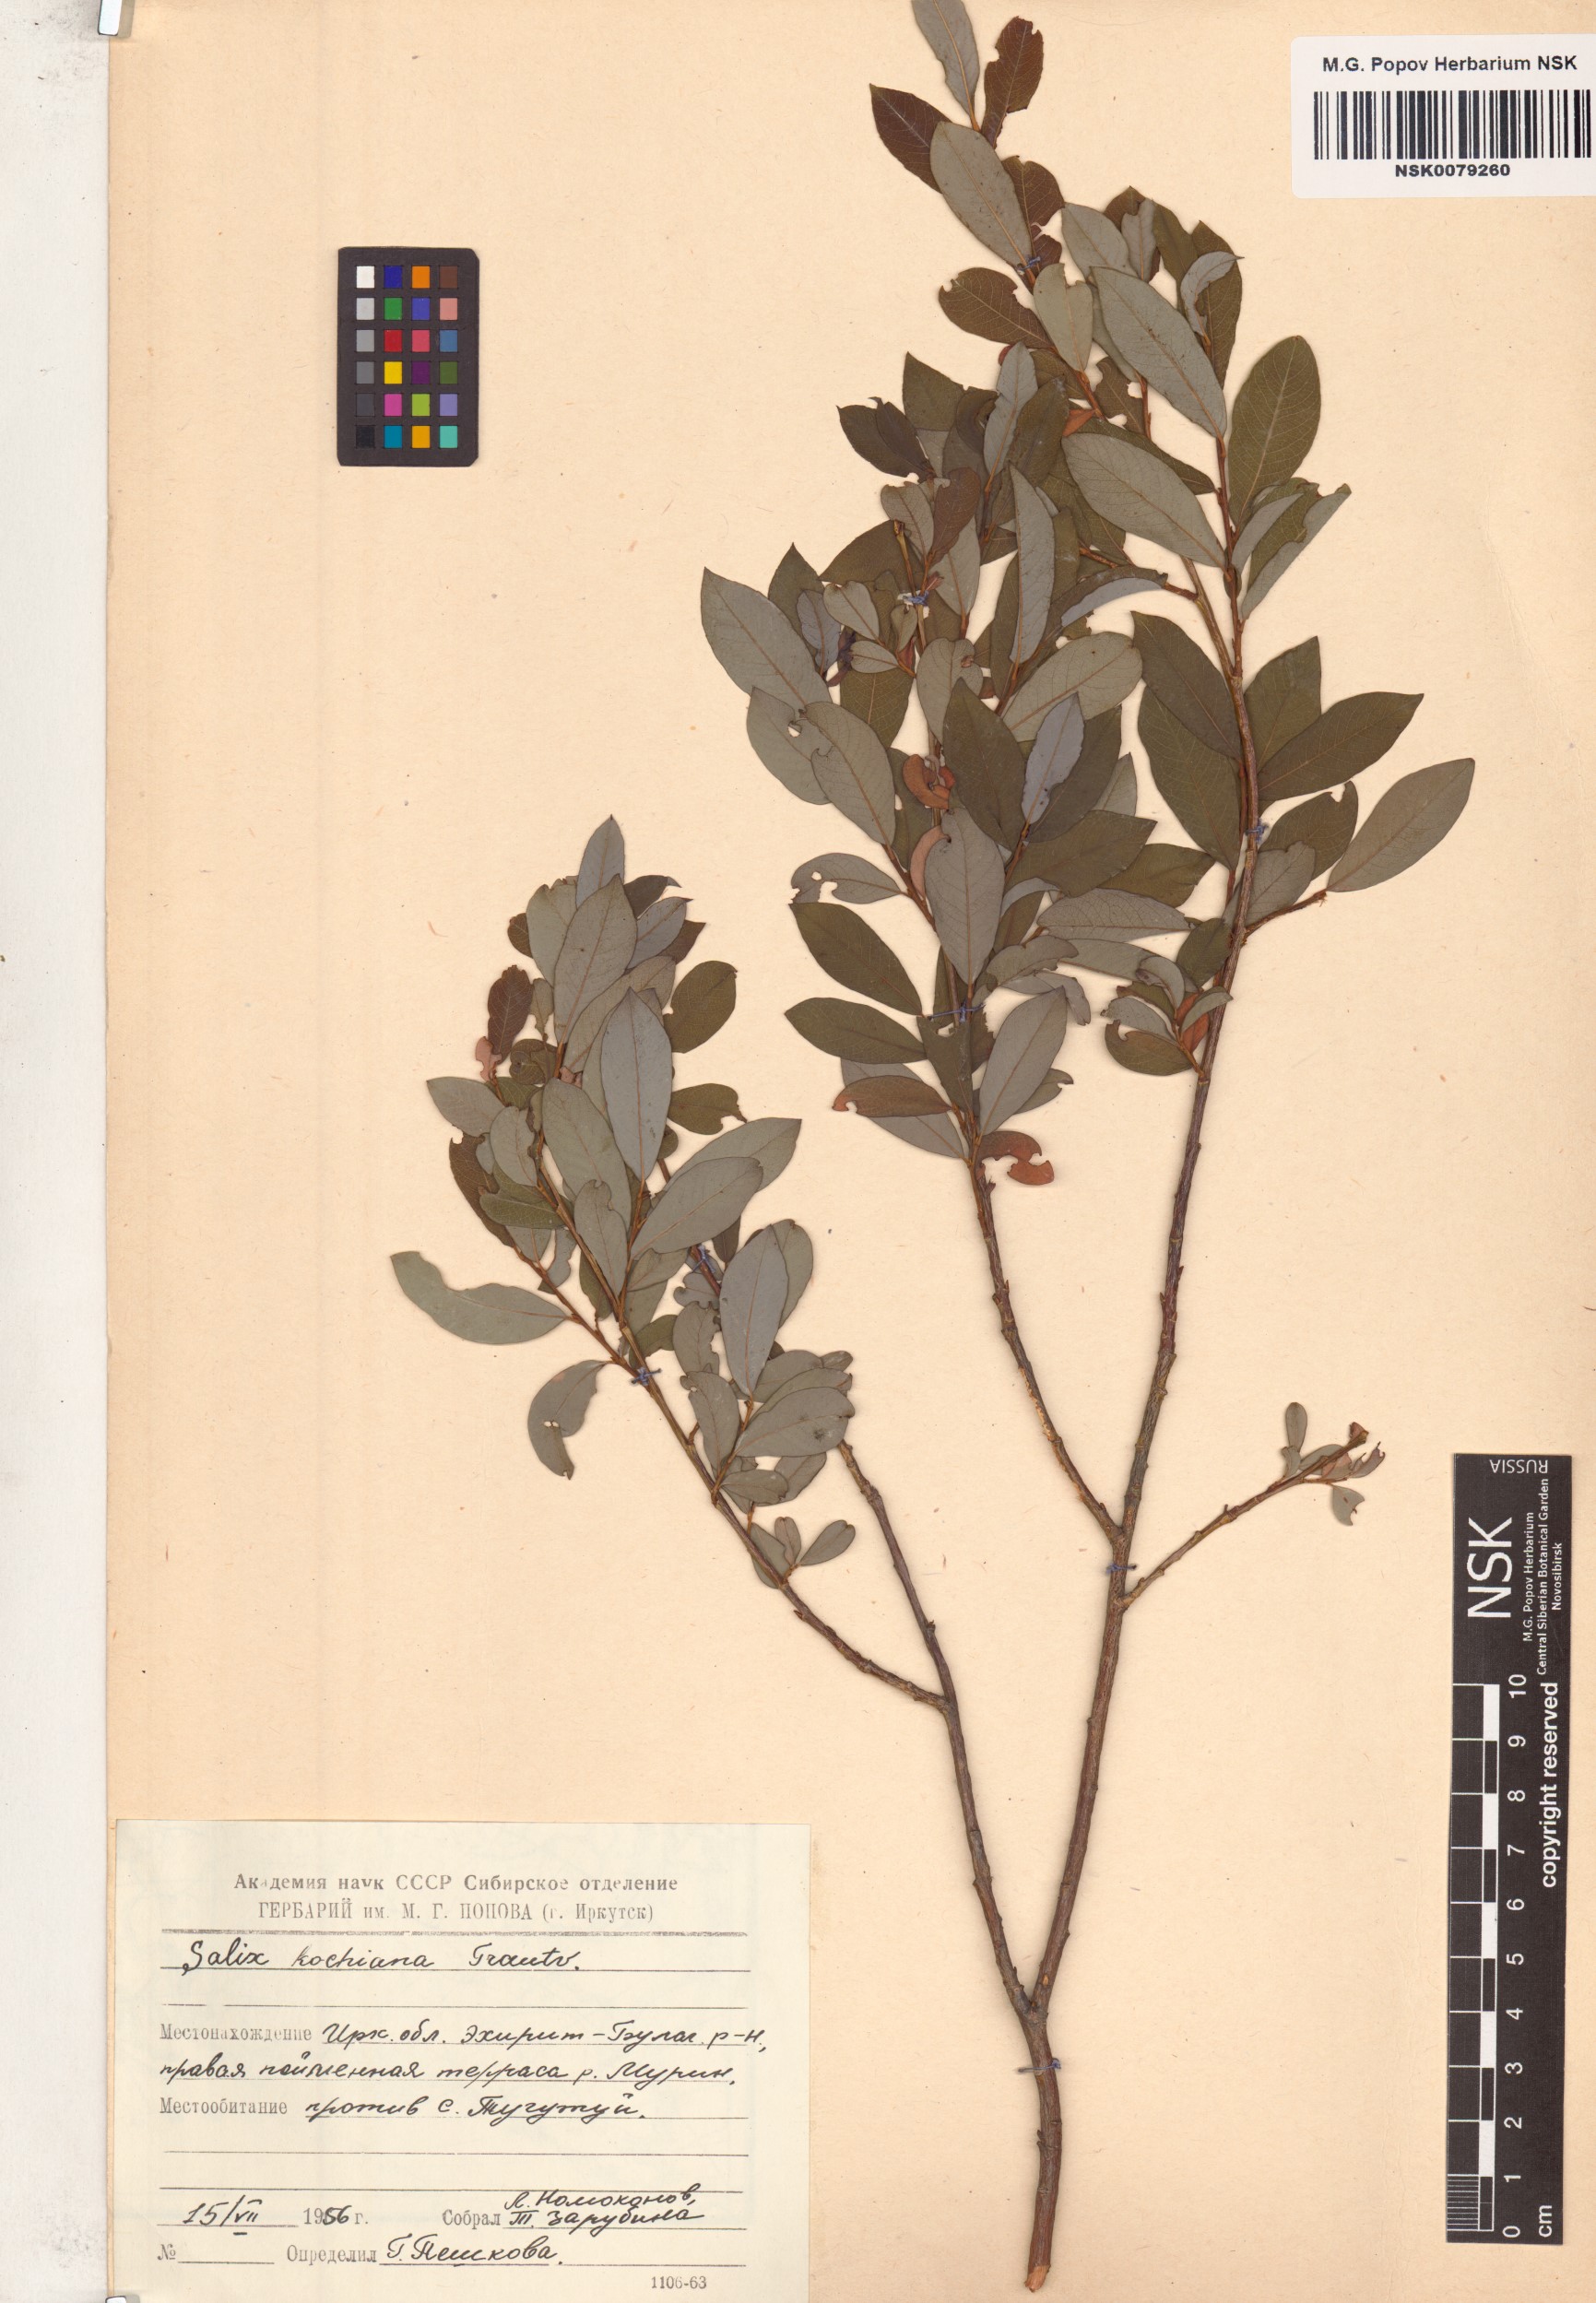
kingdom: Plantae
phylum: Tracheophyta
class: Magnoliopsida
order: Malpighiales
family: Salicaceae
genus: Salix
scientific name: Salix kochiana
